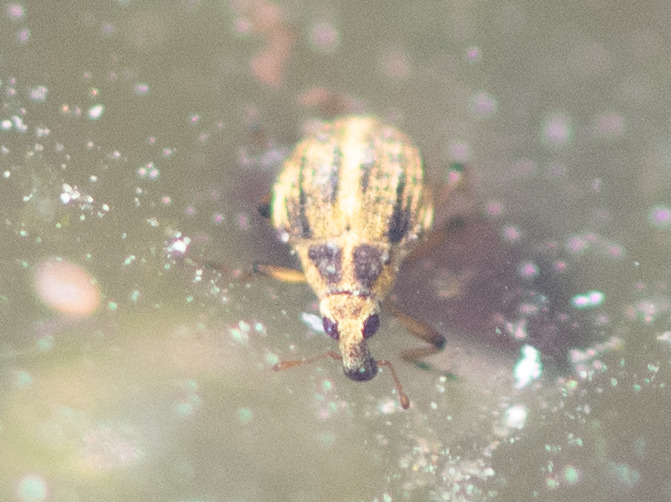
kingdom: Animalia
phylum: Arthropoda
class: Insecta
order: Coleoptera
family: Curculionidae
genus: Eubrychius
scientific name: Eubrychius velutus
